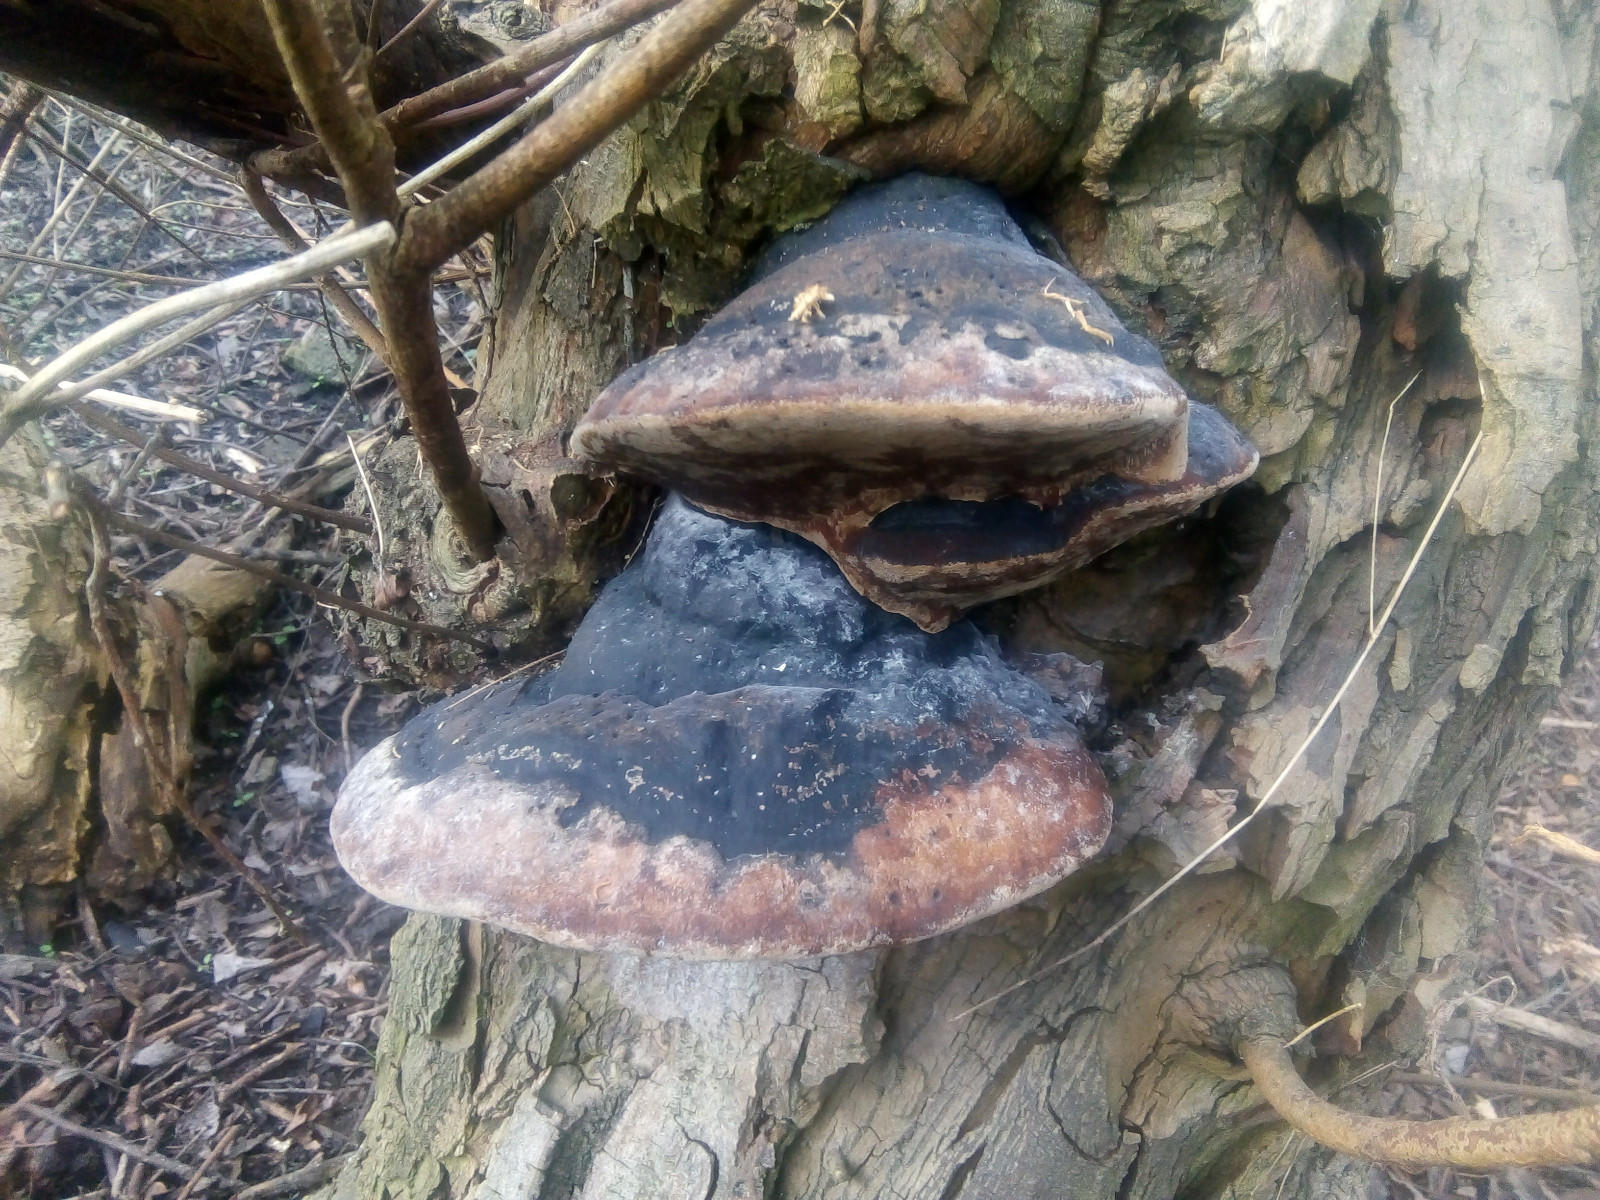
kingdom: Fungi
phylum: Basidiomycota
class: Agaricomycetes
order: Hymenochaetales
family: Hymenochaetaceae
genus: Phellinus
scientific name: Phellinus igniarius
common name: almindelig ildporesvamp
